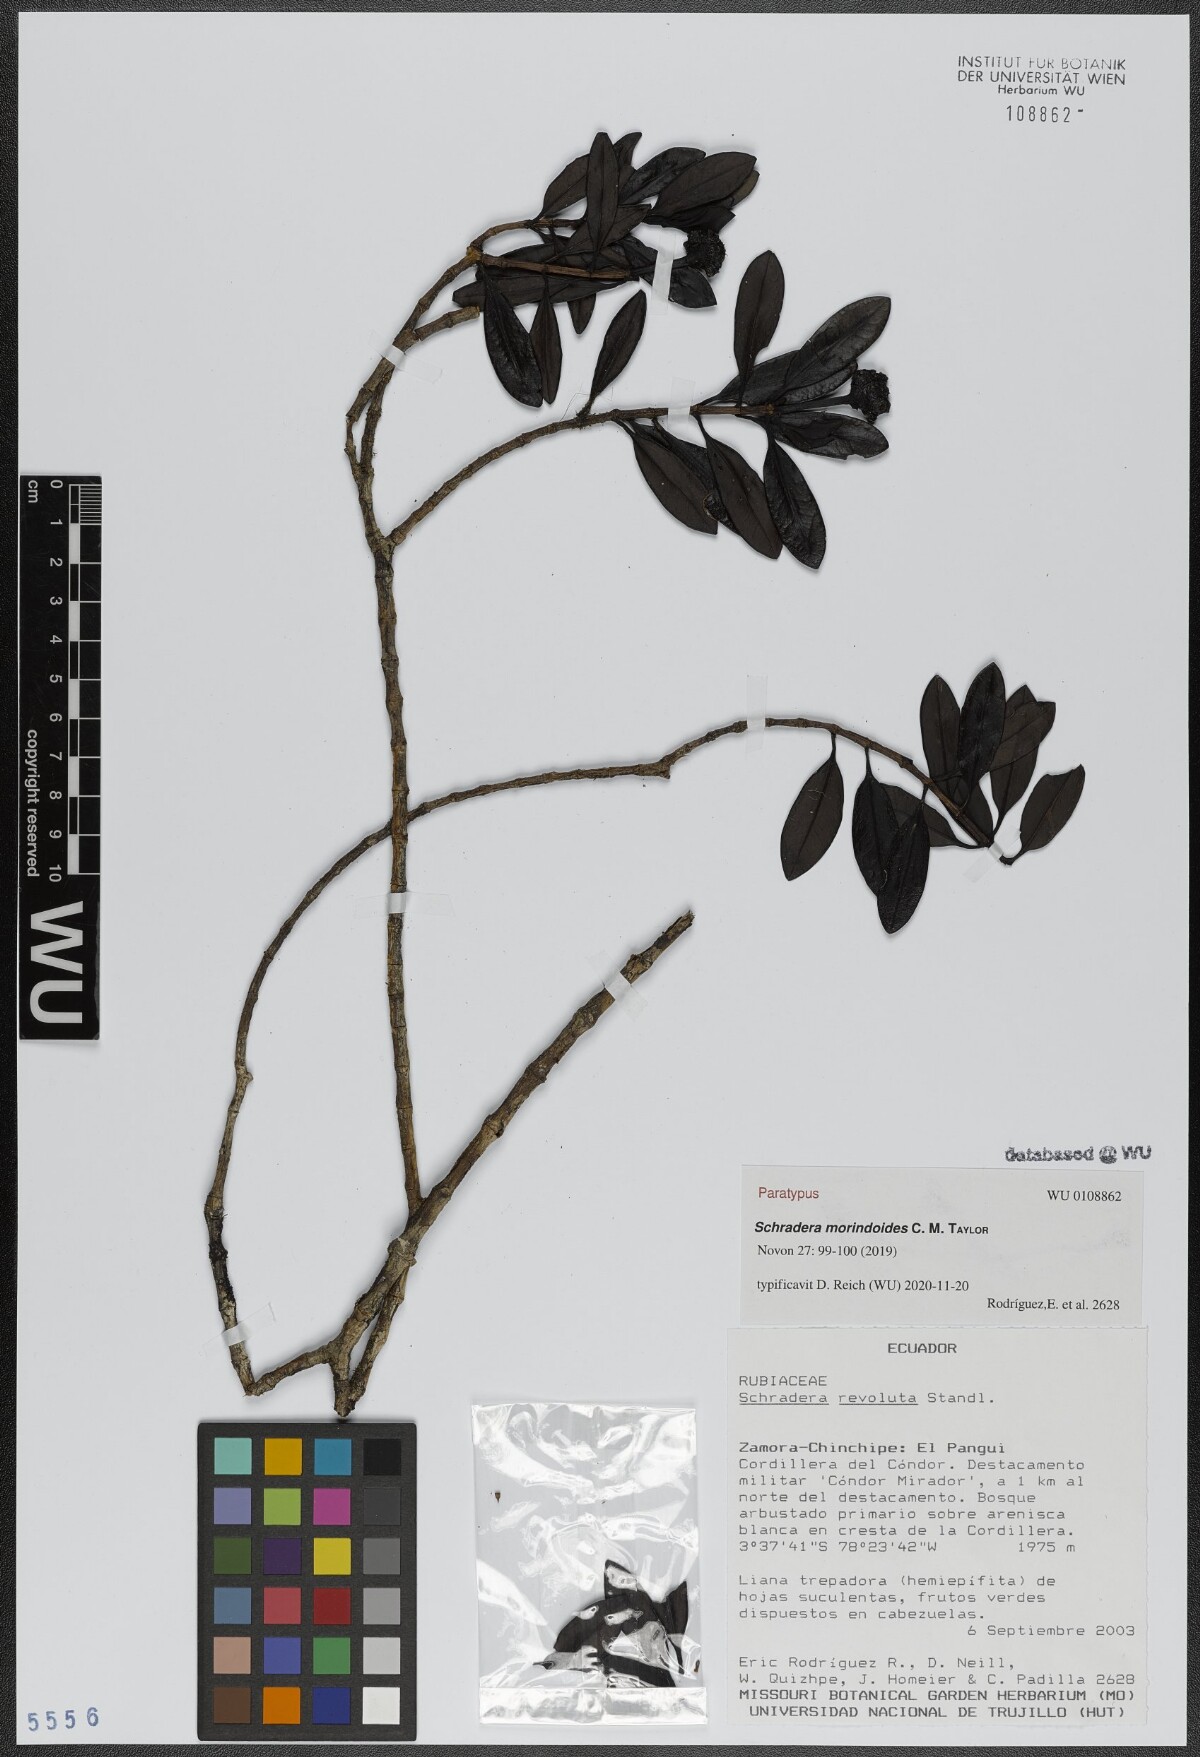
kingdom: Plantae
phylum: Tracheophyta
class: Magnoliopsida
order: Gentianales
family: Rubiaceae
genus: Schradera
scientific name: Schradera morindoides
